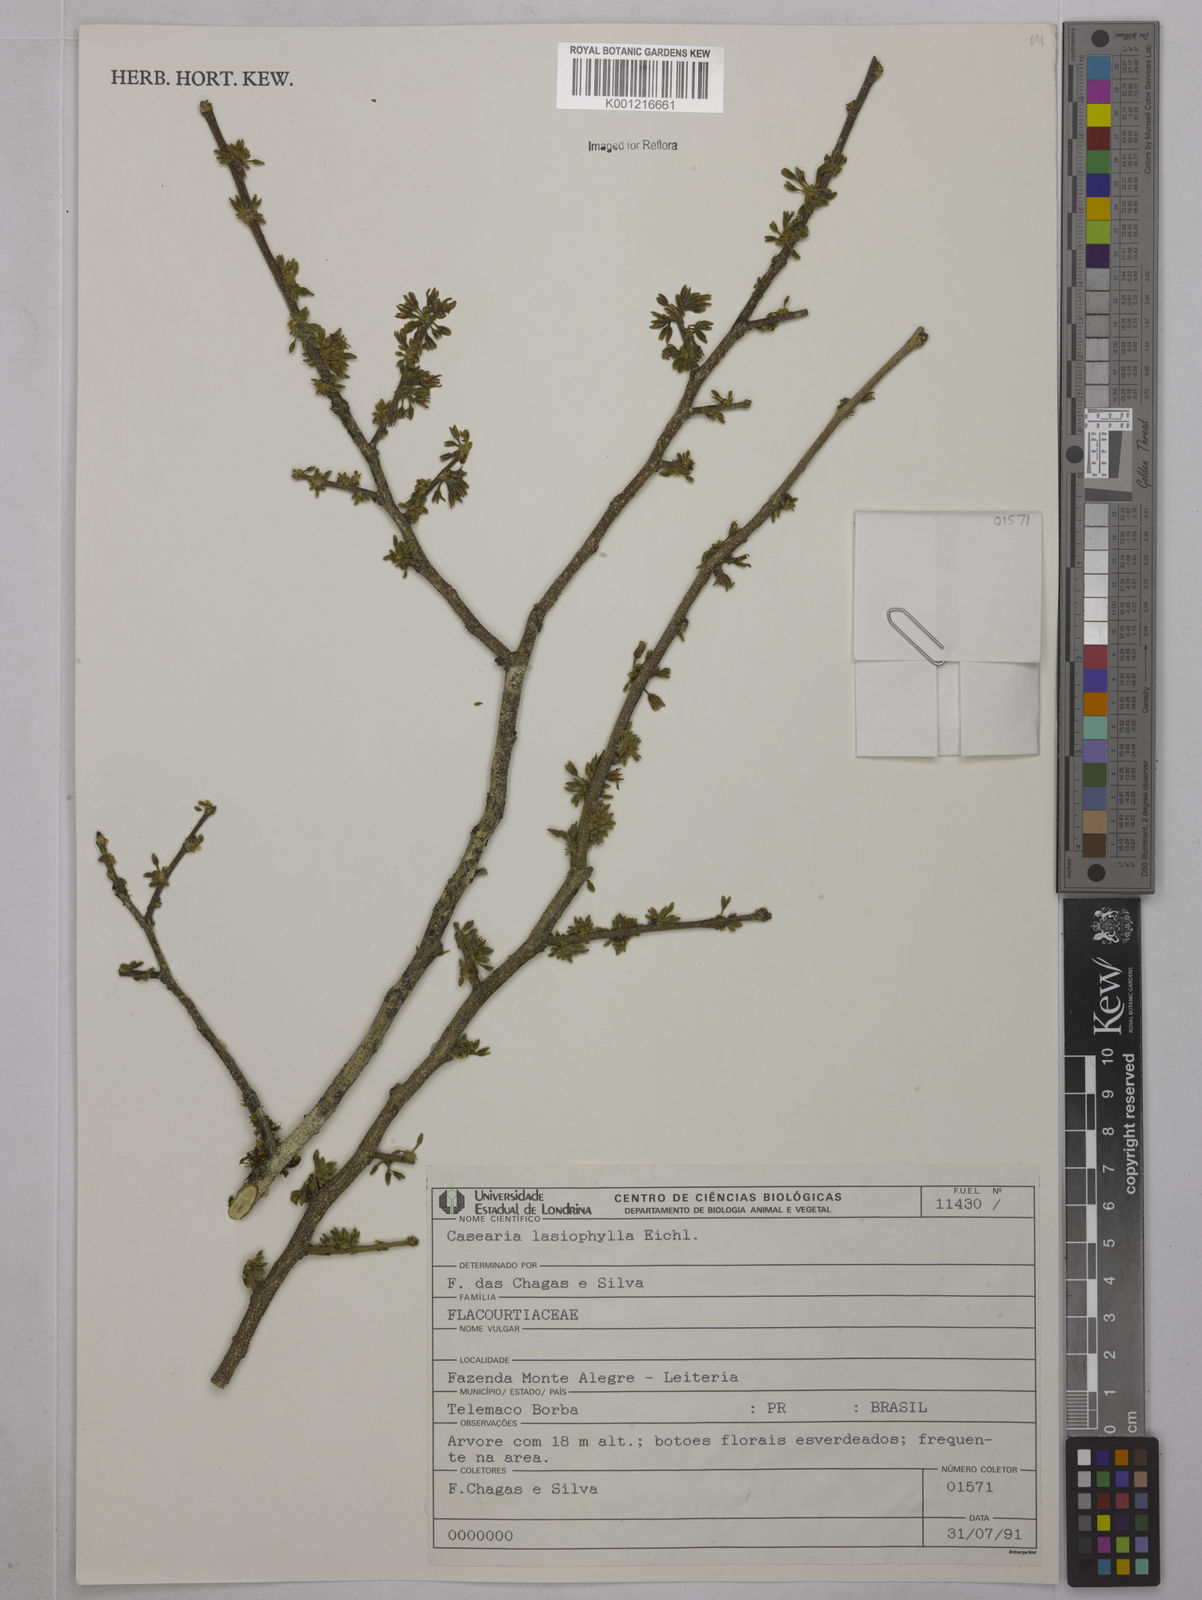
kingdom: Plantae
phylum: Tracheophyta
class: Magnoliopsida
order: Malpighiales
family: Salicaceae
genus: Casearia
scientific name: Casearia lasiophylla
